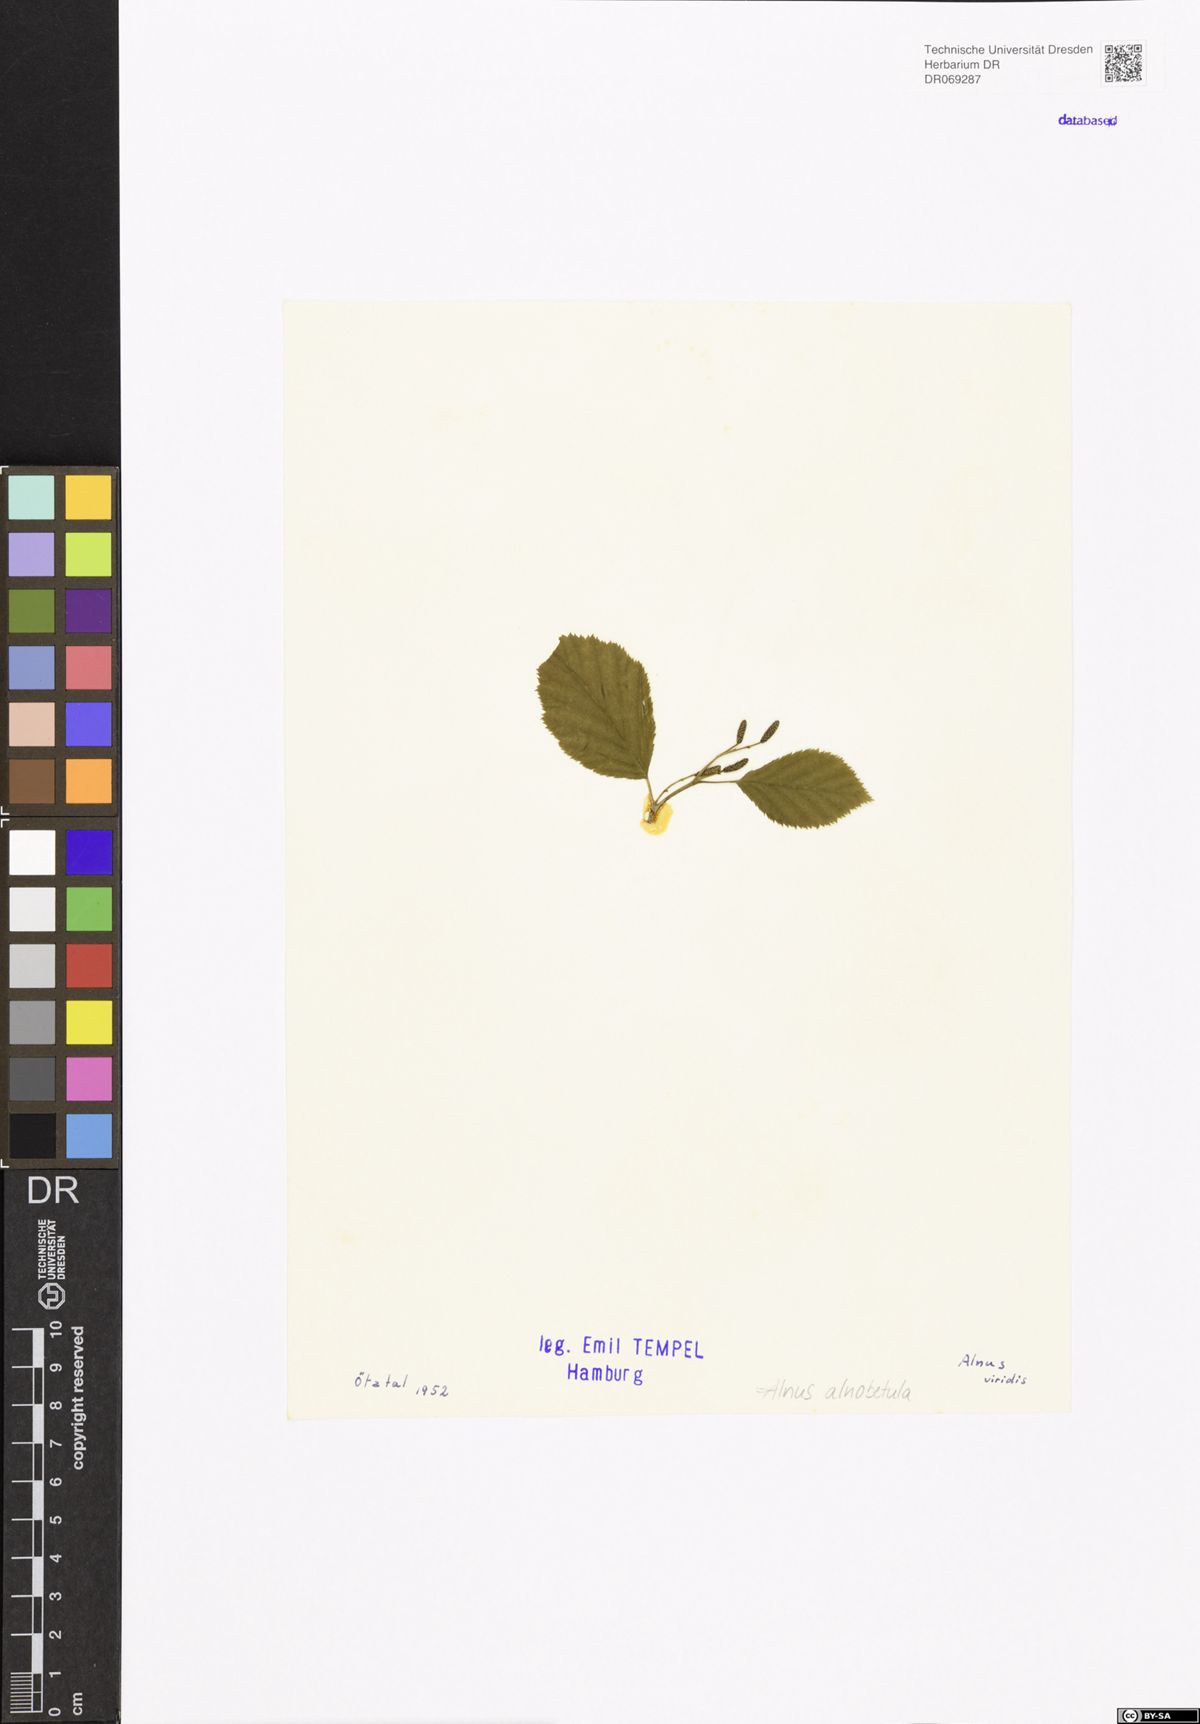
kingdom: Plantae
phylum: Tracheophyta
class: Magnoliopsida
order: Fagales
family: Betulaceae
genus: Alnus
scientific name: Alnus alnobetula
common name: Green alder
